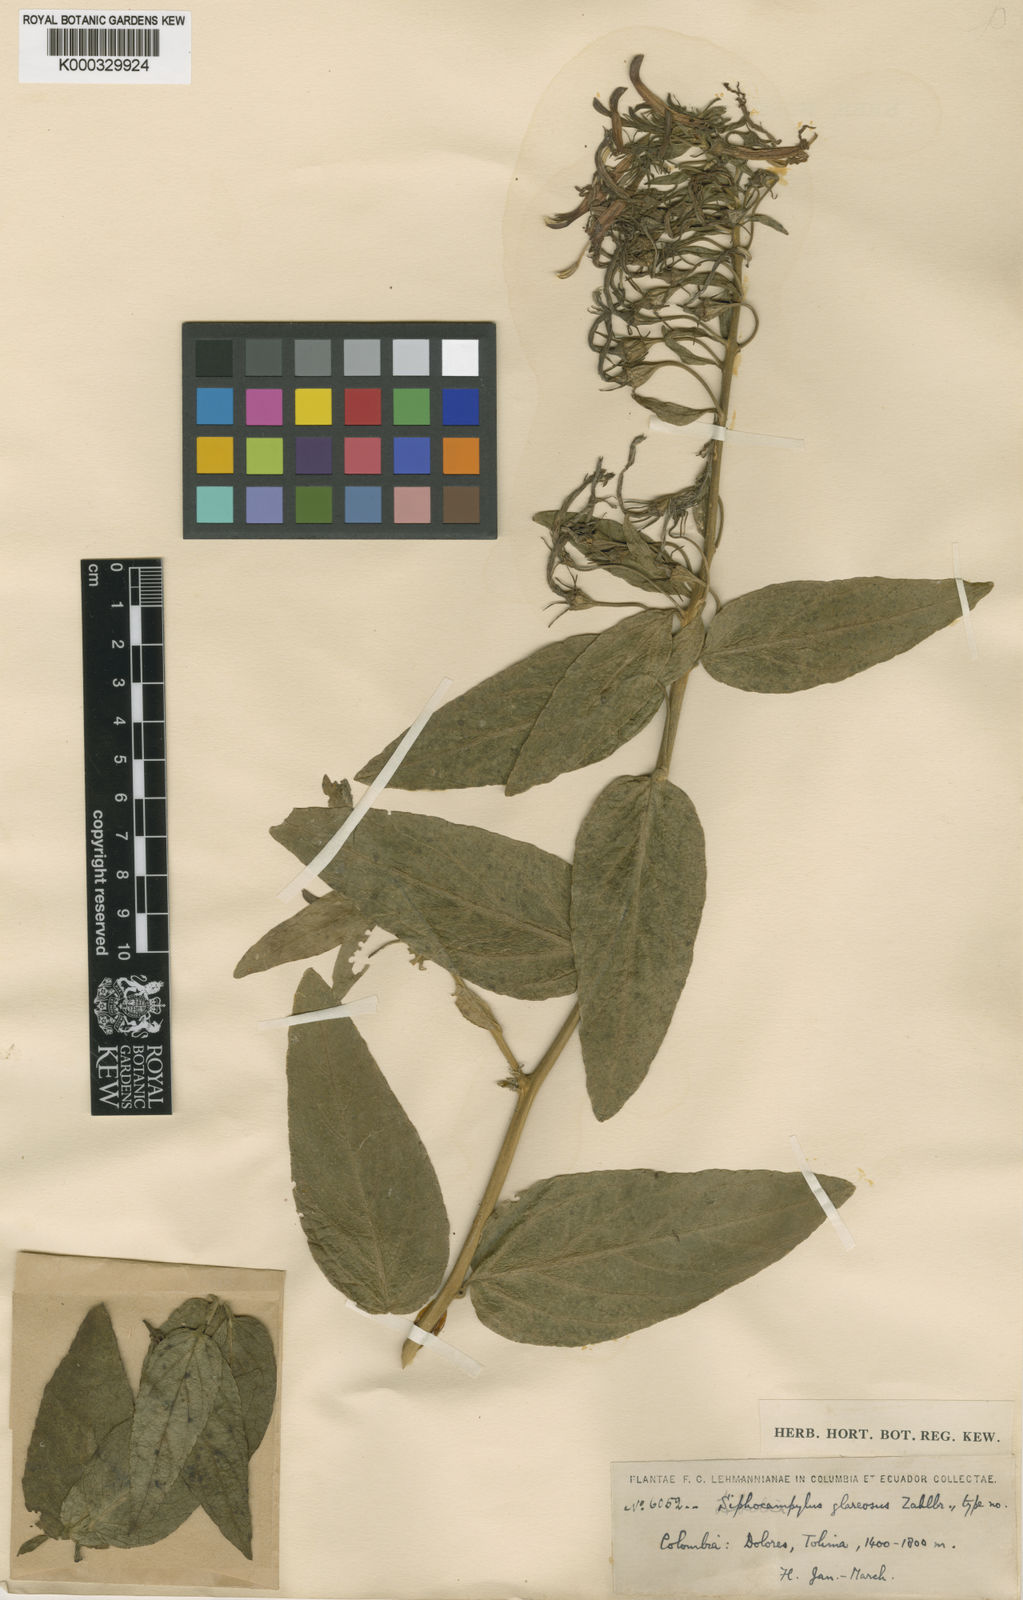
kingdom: Plantae
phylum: Tracheophyta
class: Magnoliopsida
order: Asterales
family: Campanulaceae
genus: Siphocampylus
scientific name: Siphocampylus glareosus
